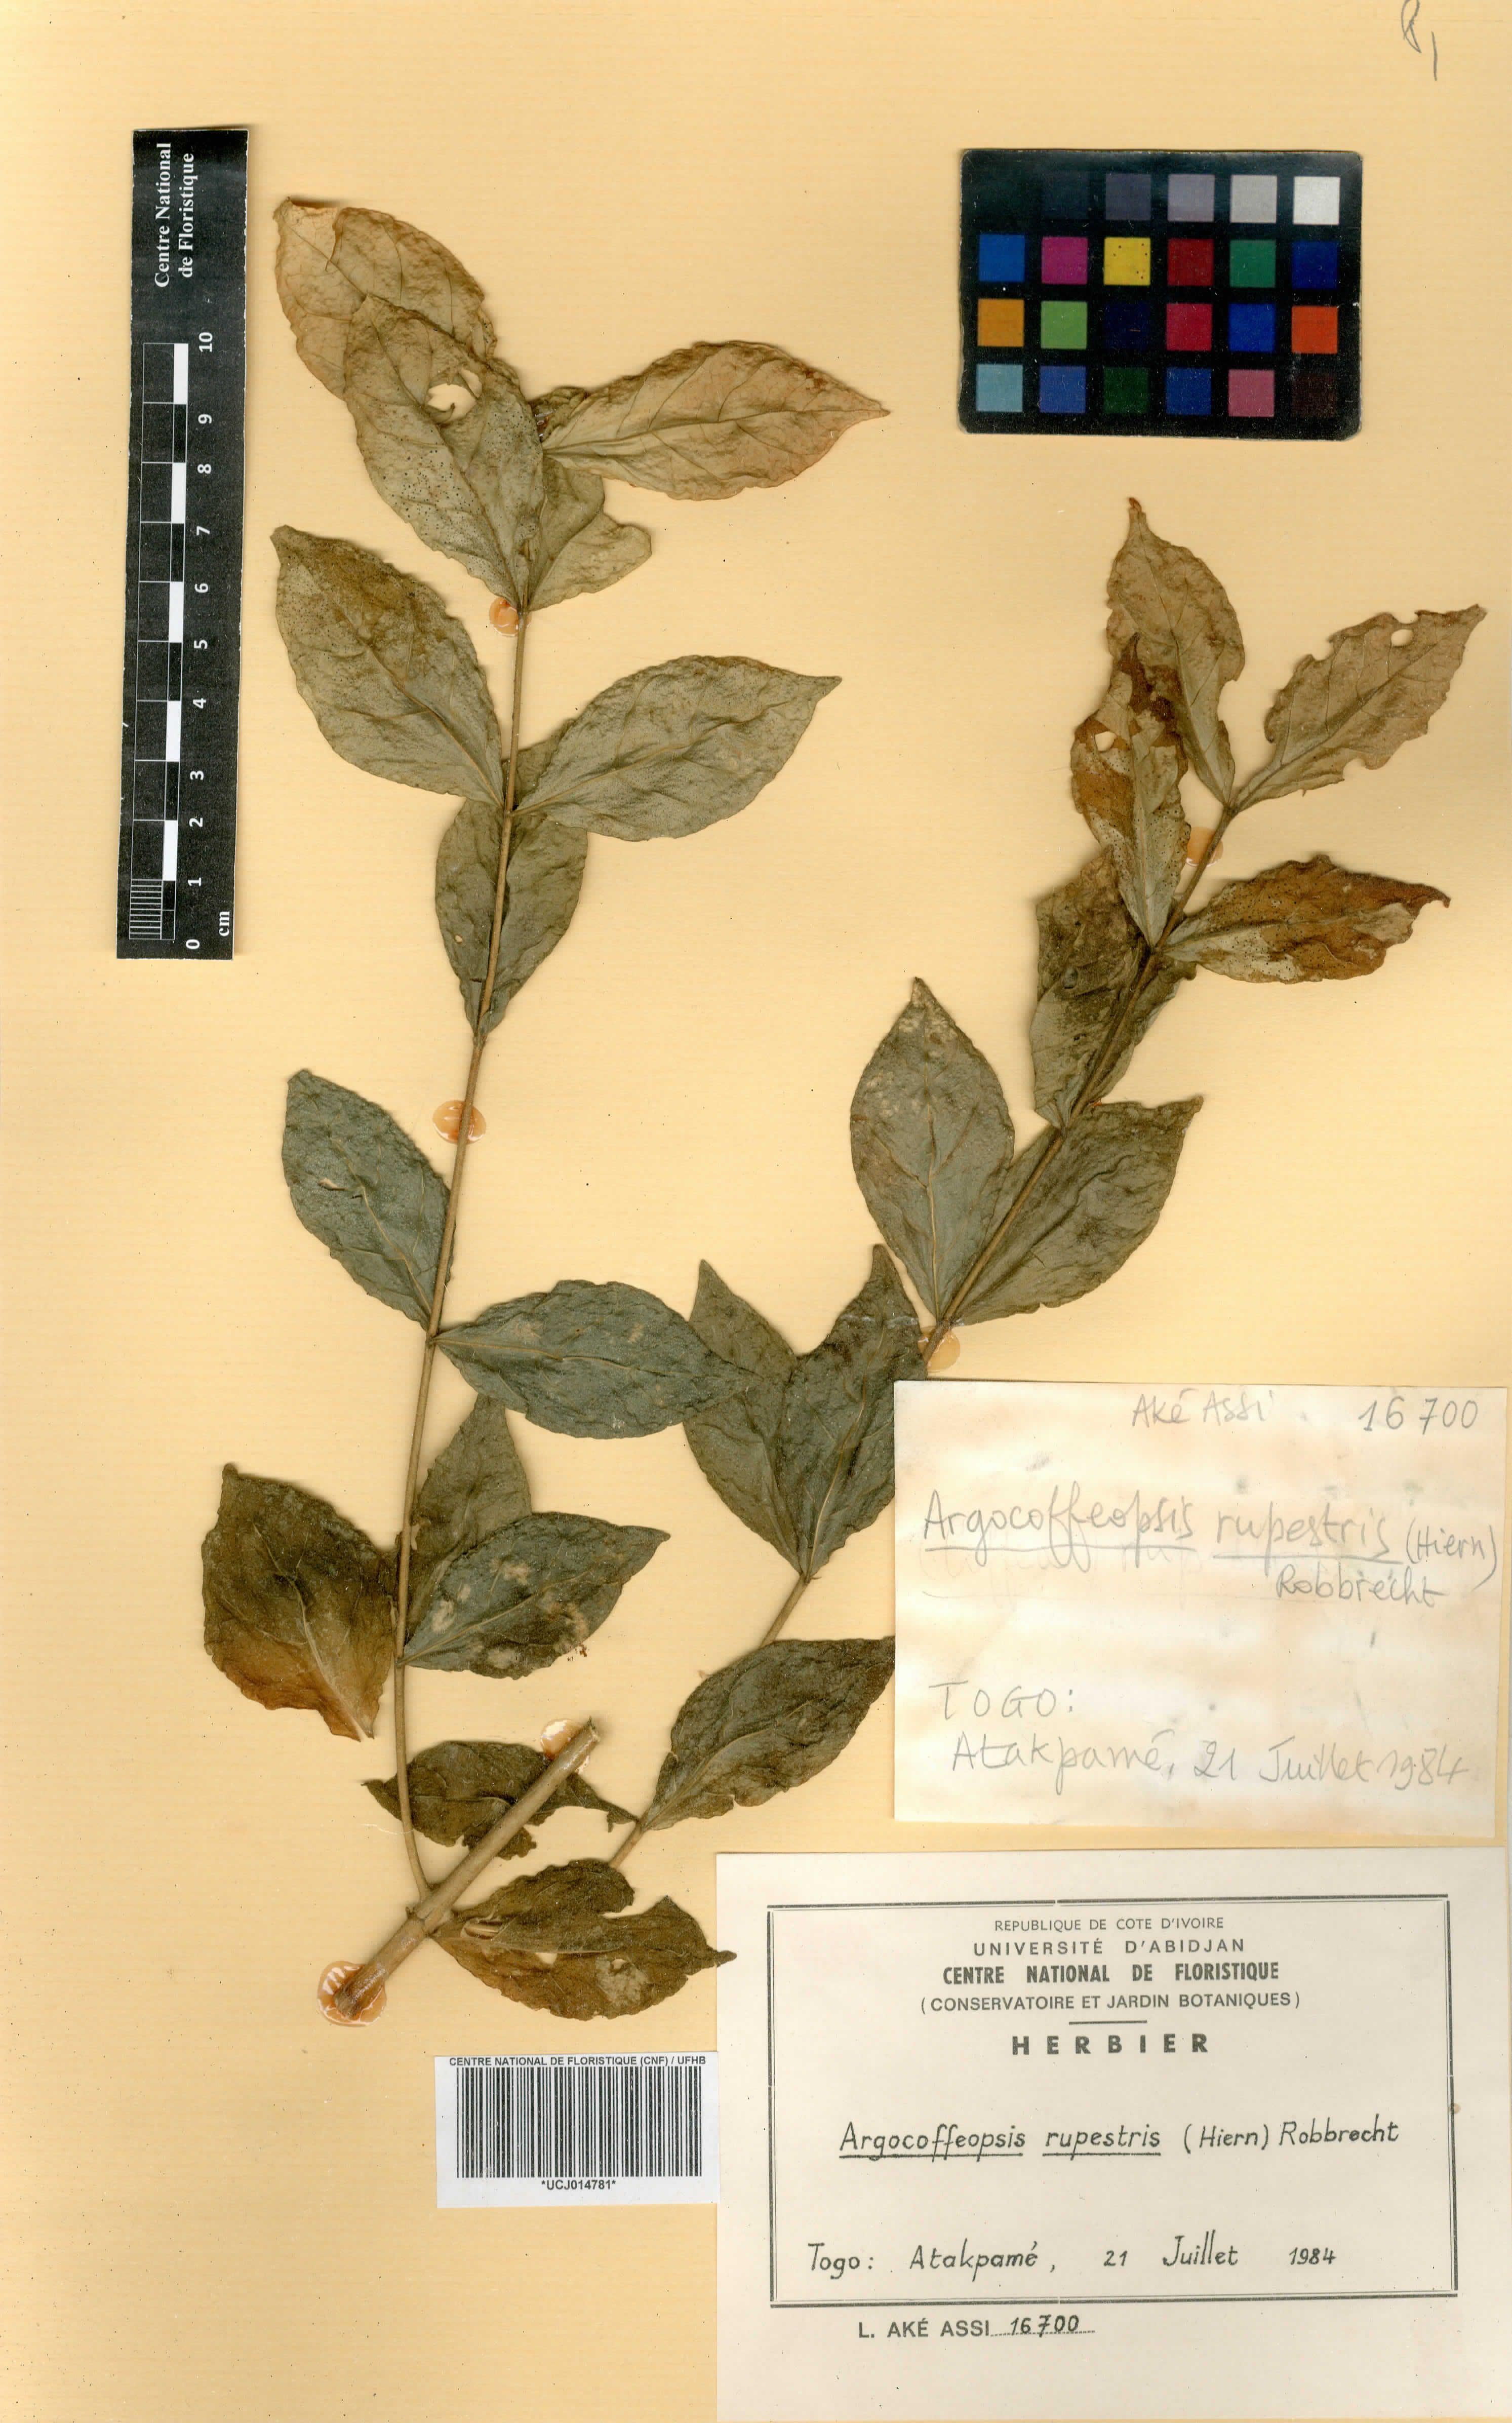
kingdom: Plantae
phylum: Tracheophyta
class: Magnoliopsida
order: Gentianales
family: Rubiaceae
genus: Argocoffeopsis
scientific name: Argocoffeopsis rupestris
